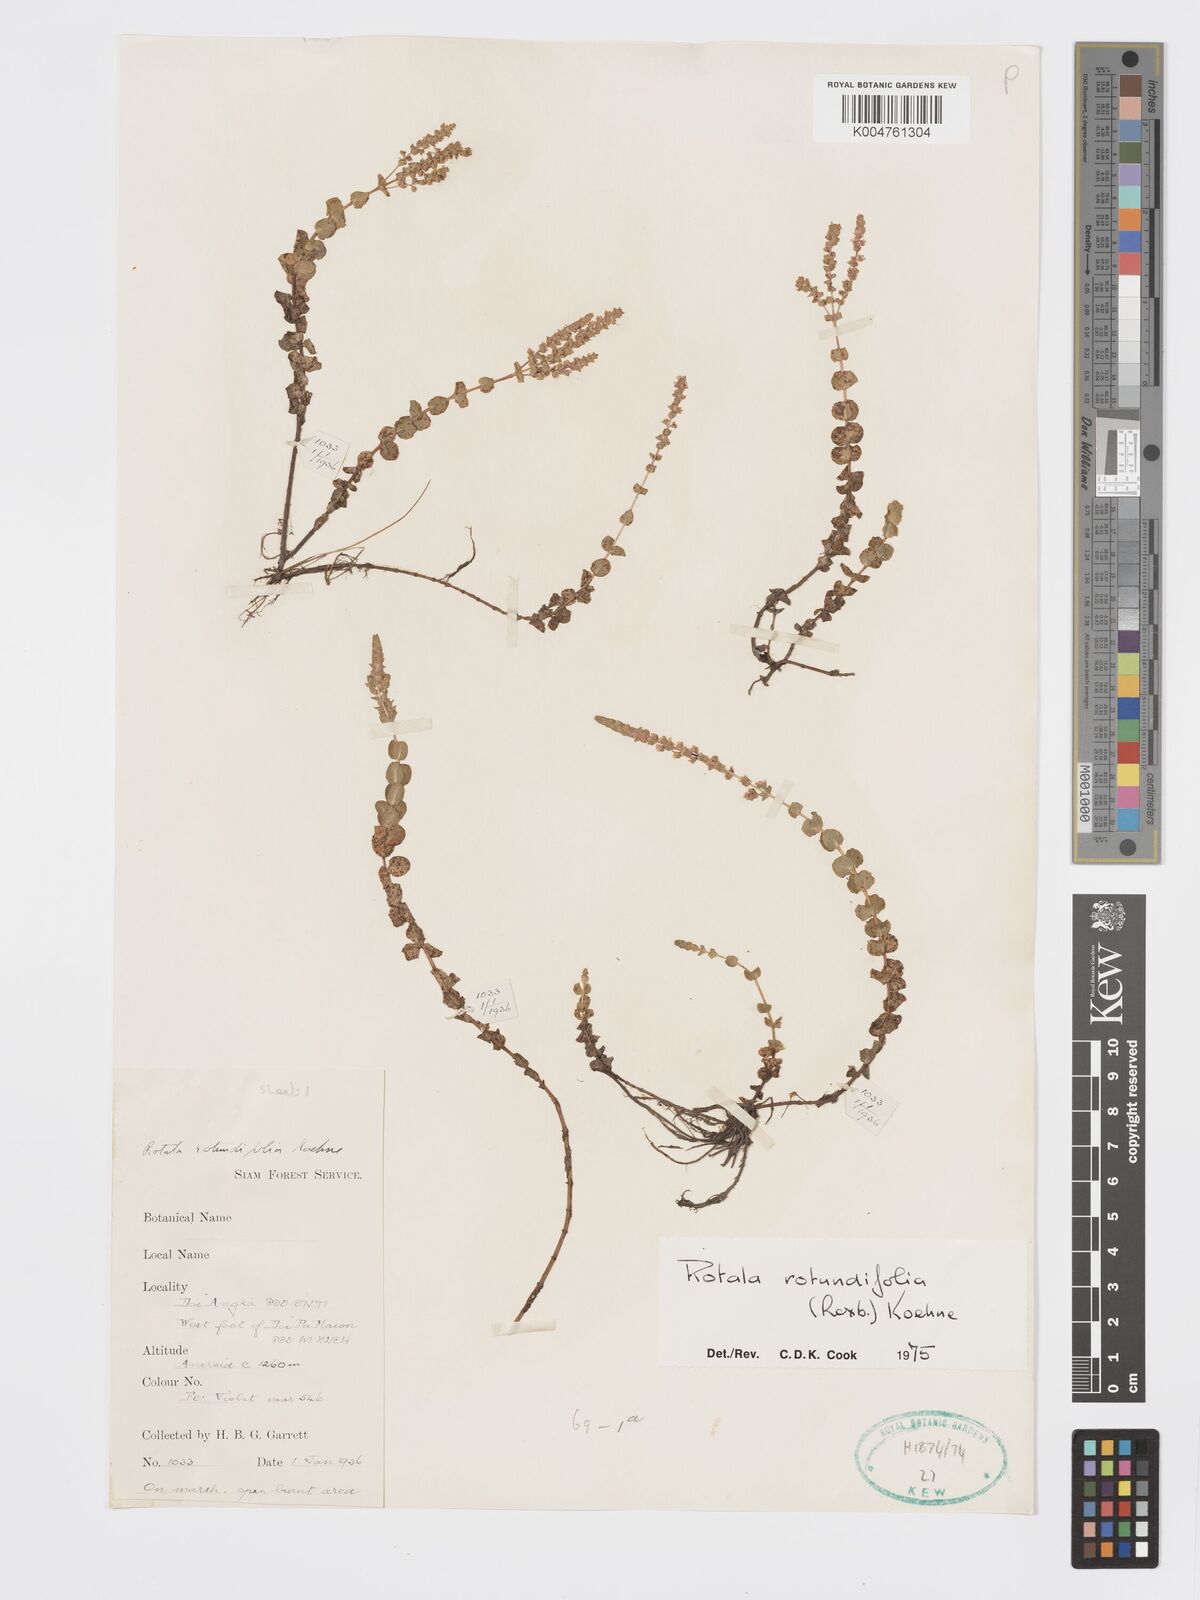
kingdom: Plantae
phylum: Tracheophyta
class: Magnoliopsida
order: Myrtales
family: Lythraceae
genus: Rotala
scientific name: Rotala rotundifolia
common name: Roundleaf toothcup
